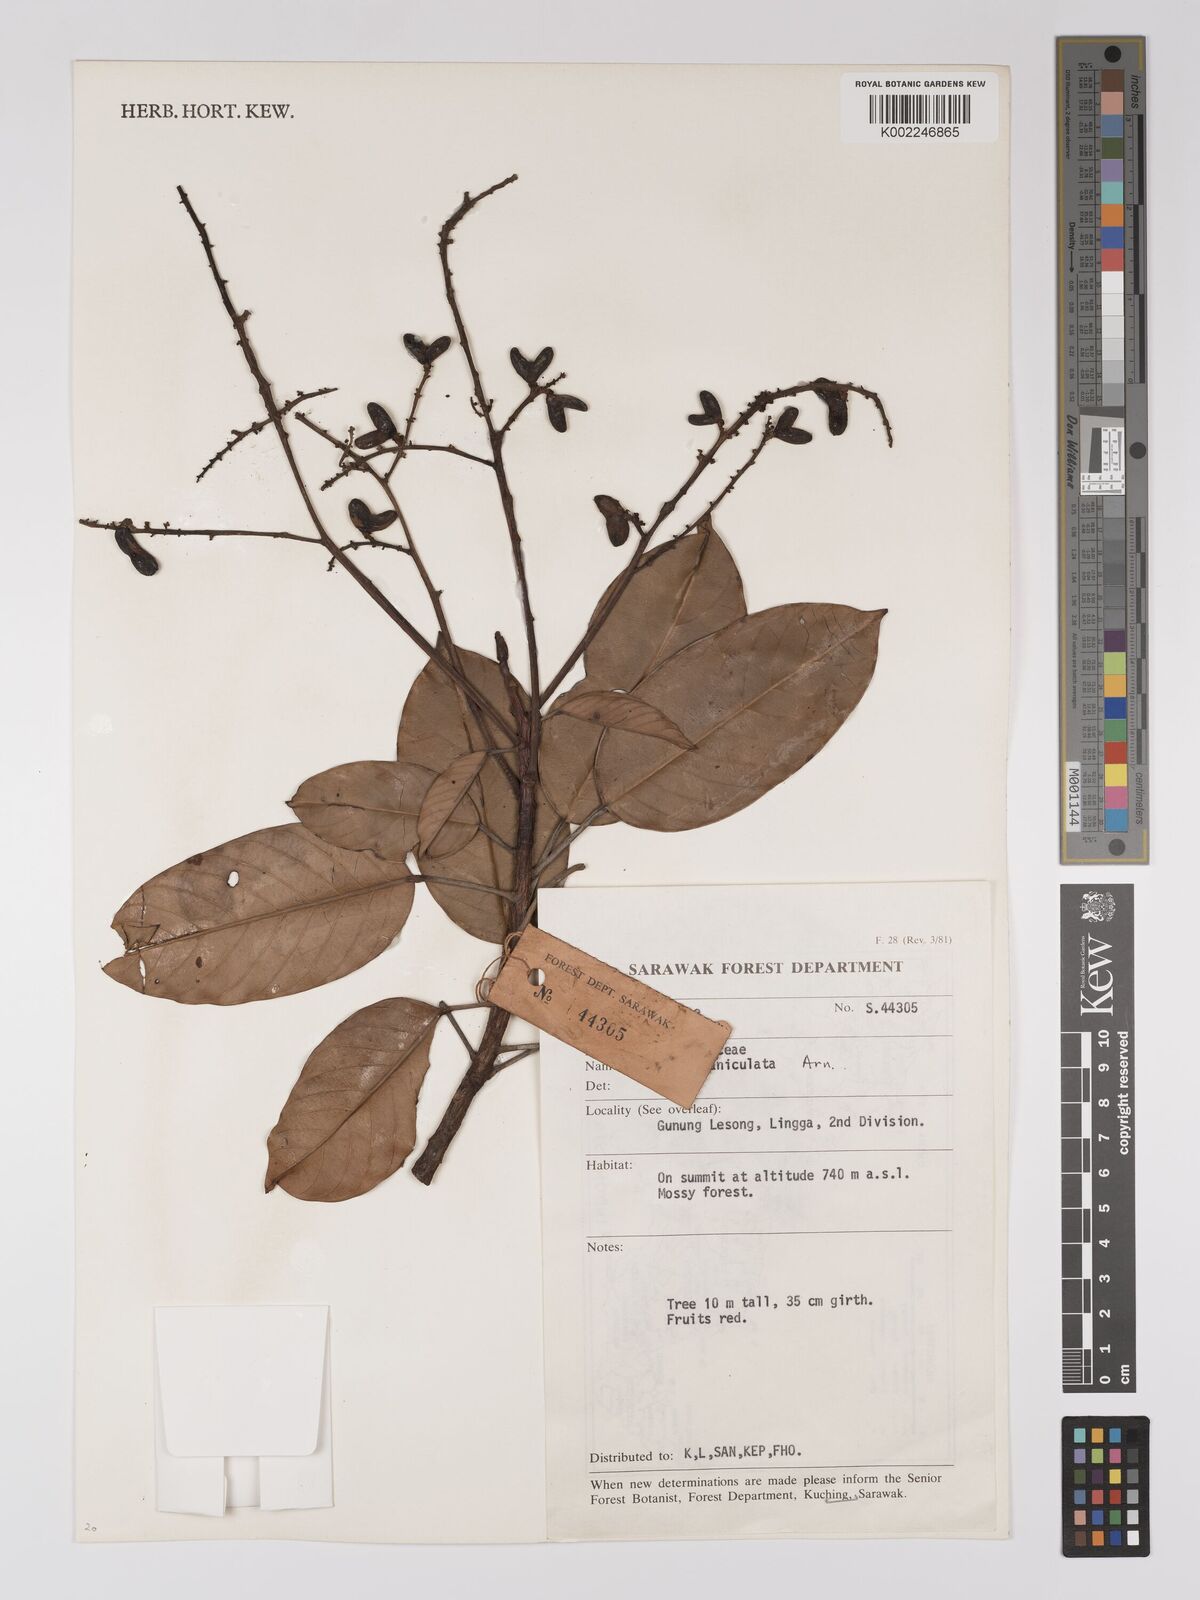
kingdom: Plantae
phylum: Tracheophyta
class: Magnoliopsida
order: Malpighiales
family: Centroplacaceae
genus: Bhesa
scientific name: Bhesa paniculata
